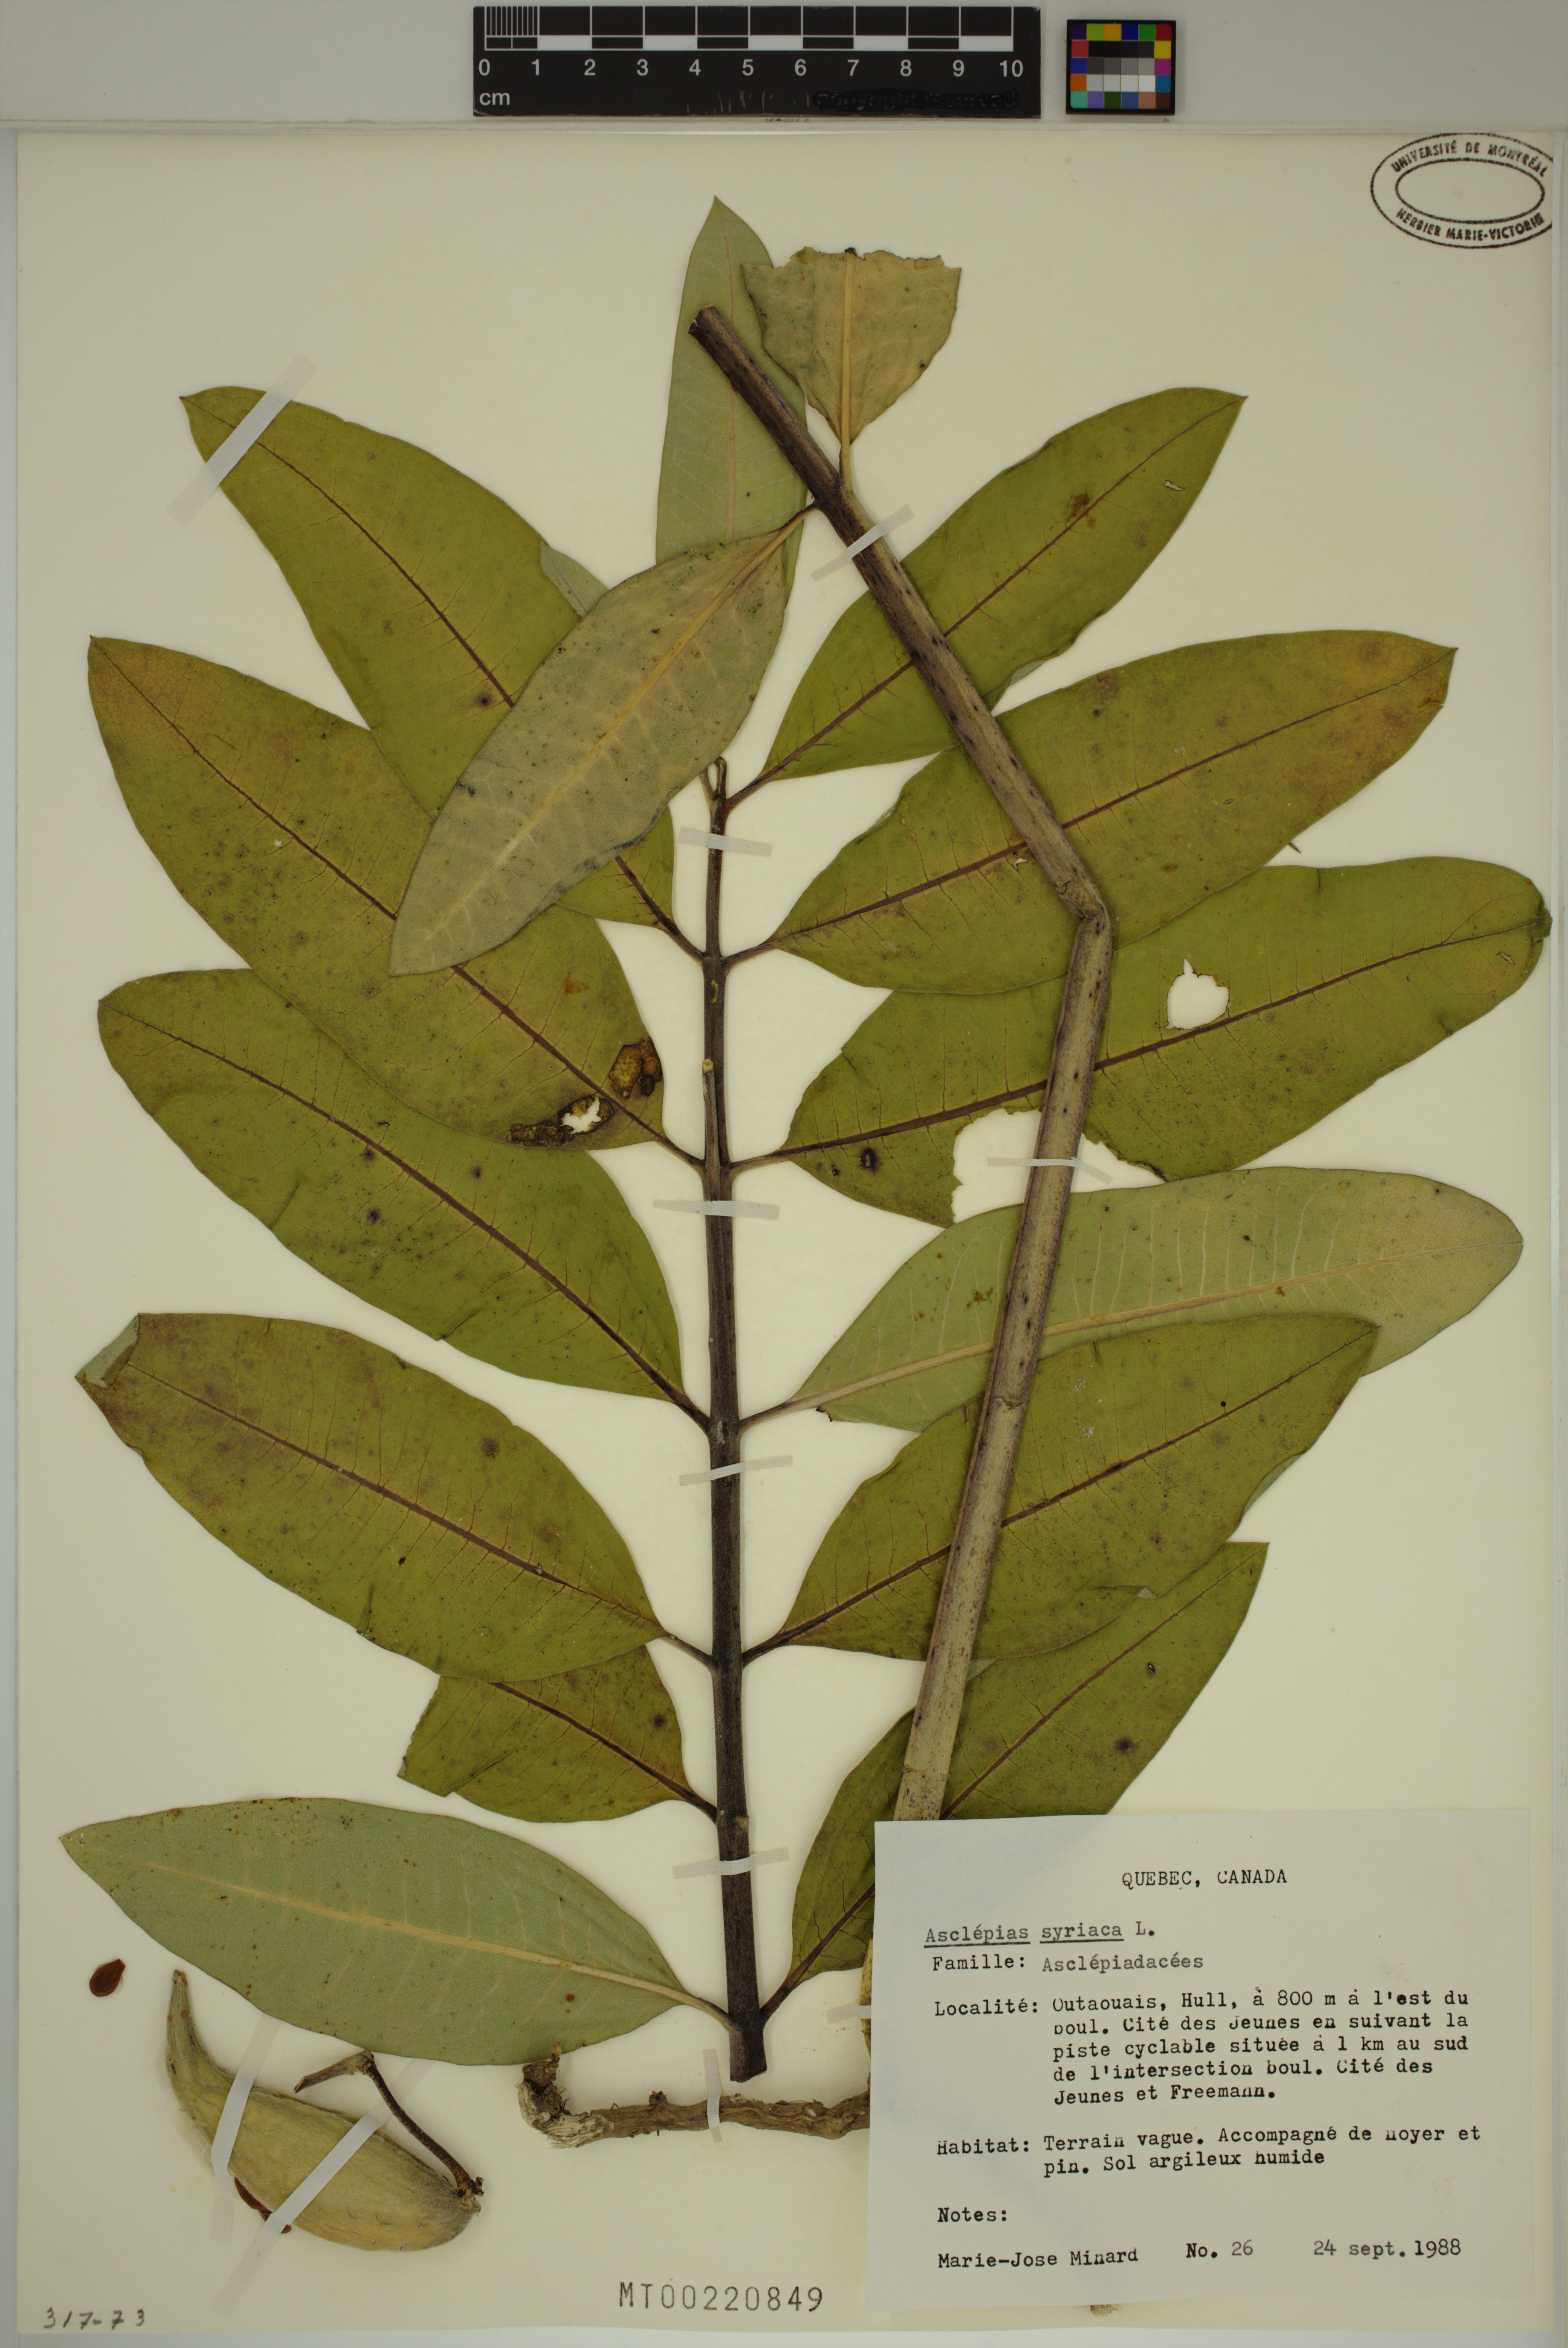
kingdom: Plantae
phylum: Tracheophyta
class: Magnoliopsida
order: Gentianales
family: Apocynaceae
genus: Asclepias
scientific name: Asclepias syriaca
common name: Common milkweed
